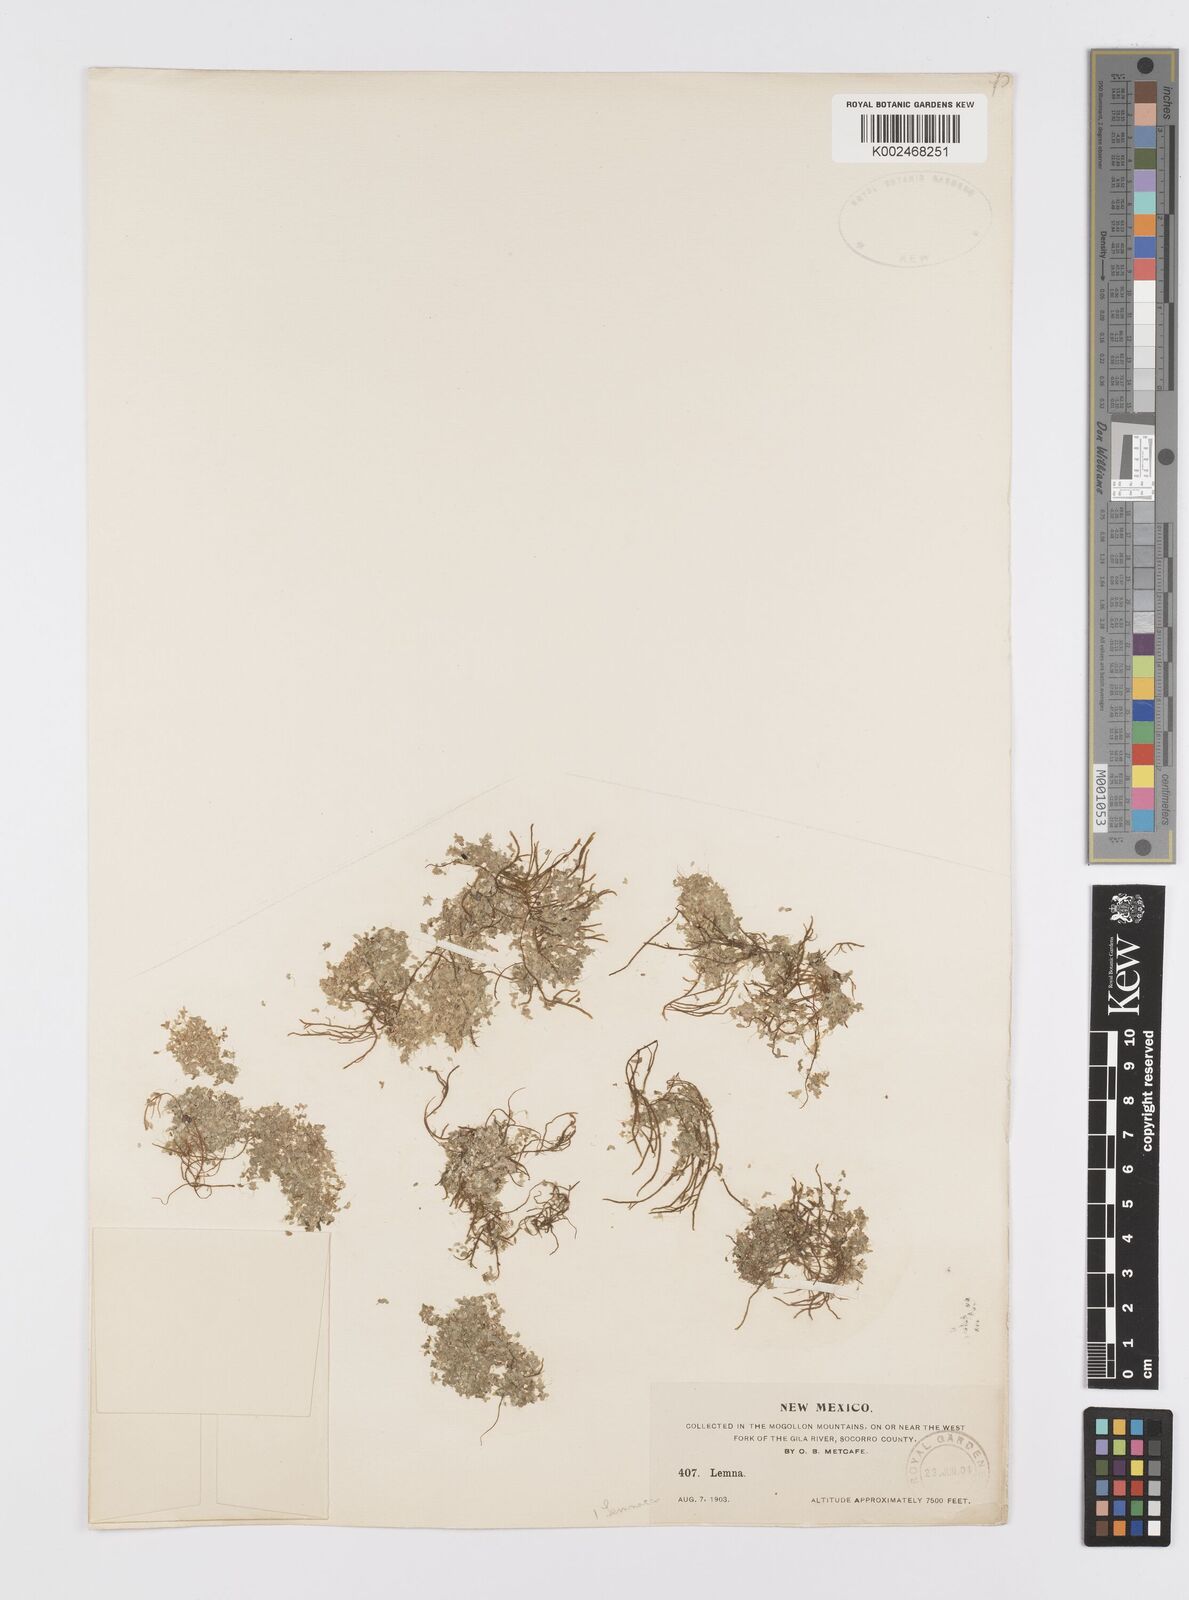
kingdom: Plantae
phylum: Tracheophyta
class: Liliopsida
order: Alismatales
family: Araceae
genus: Lemna
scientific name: Lemna
